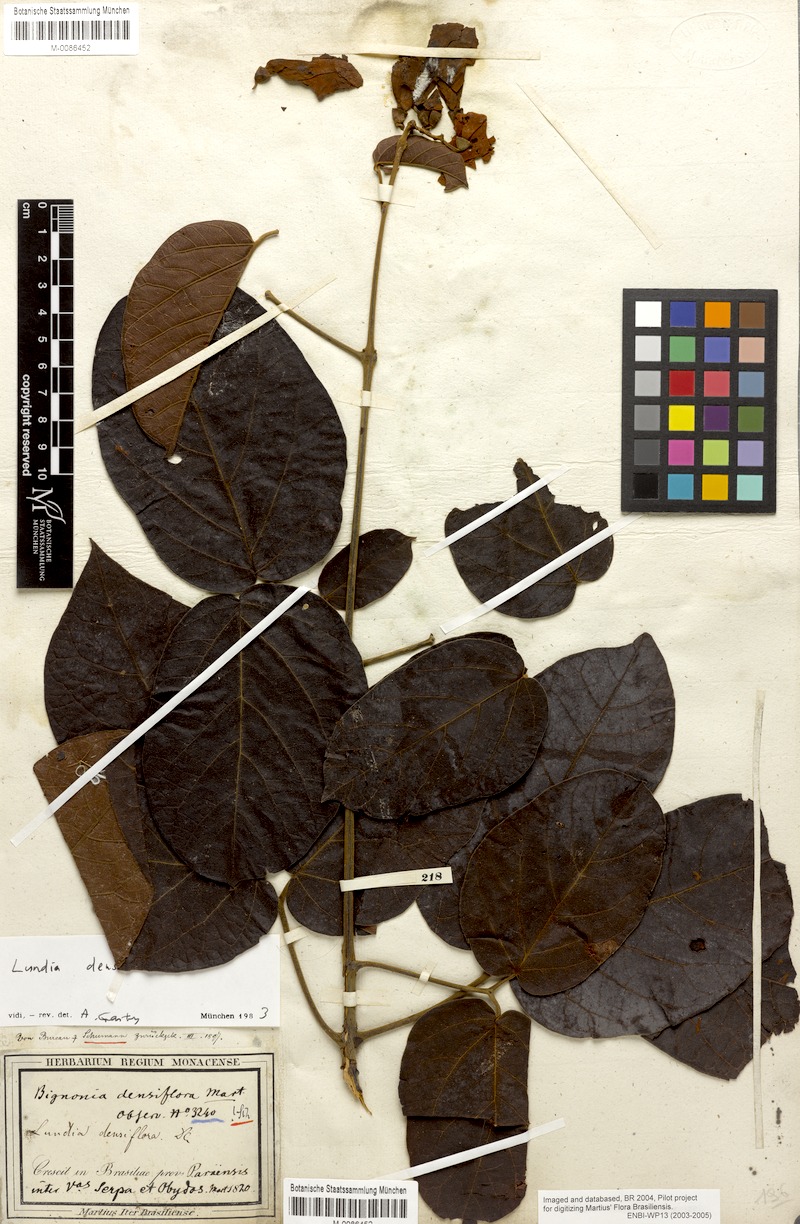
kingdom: Plantae
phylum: Tracheophyta
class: Magnoliopsida
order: Lamiales
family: Bignoniaceae
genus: Lundia
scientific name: Lundia densiflora
